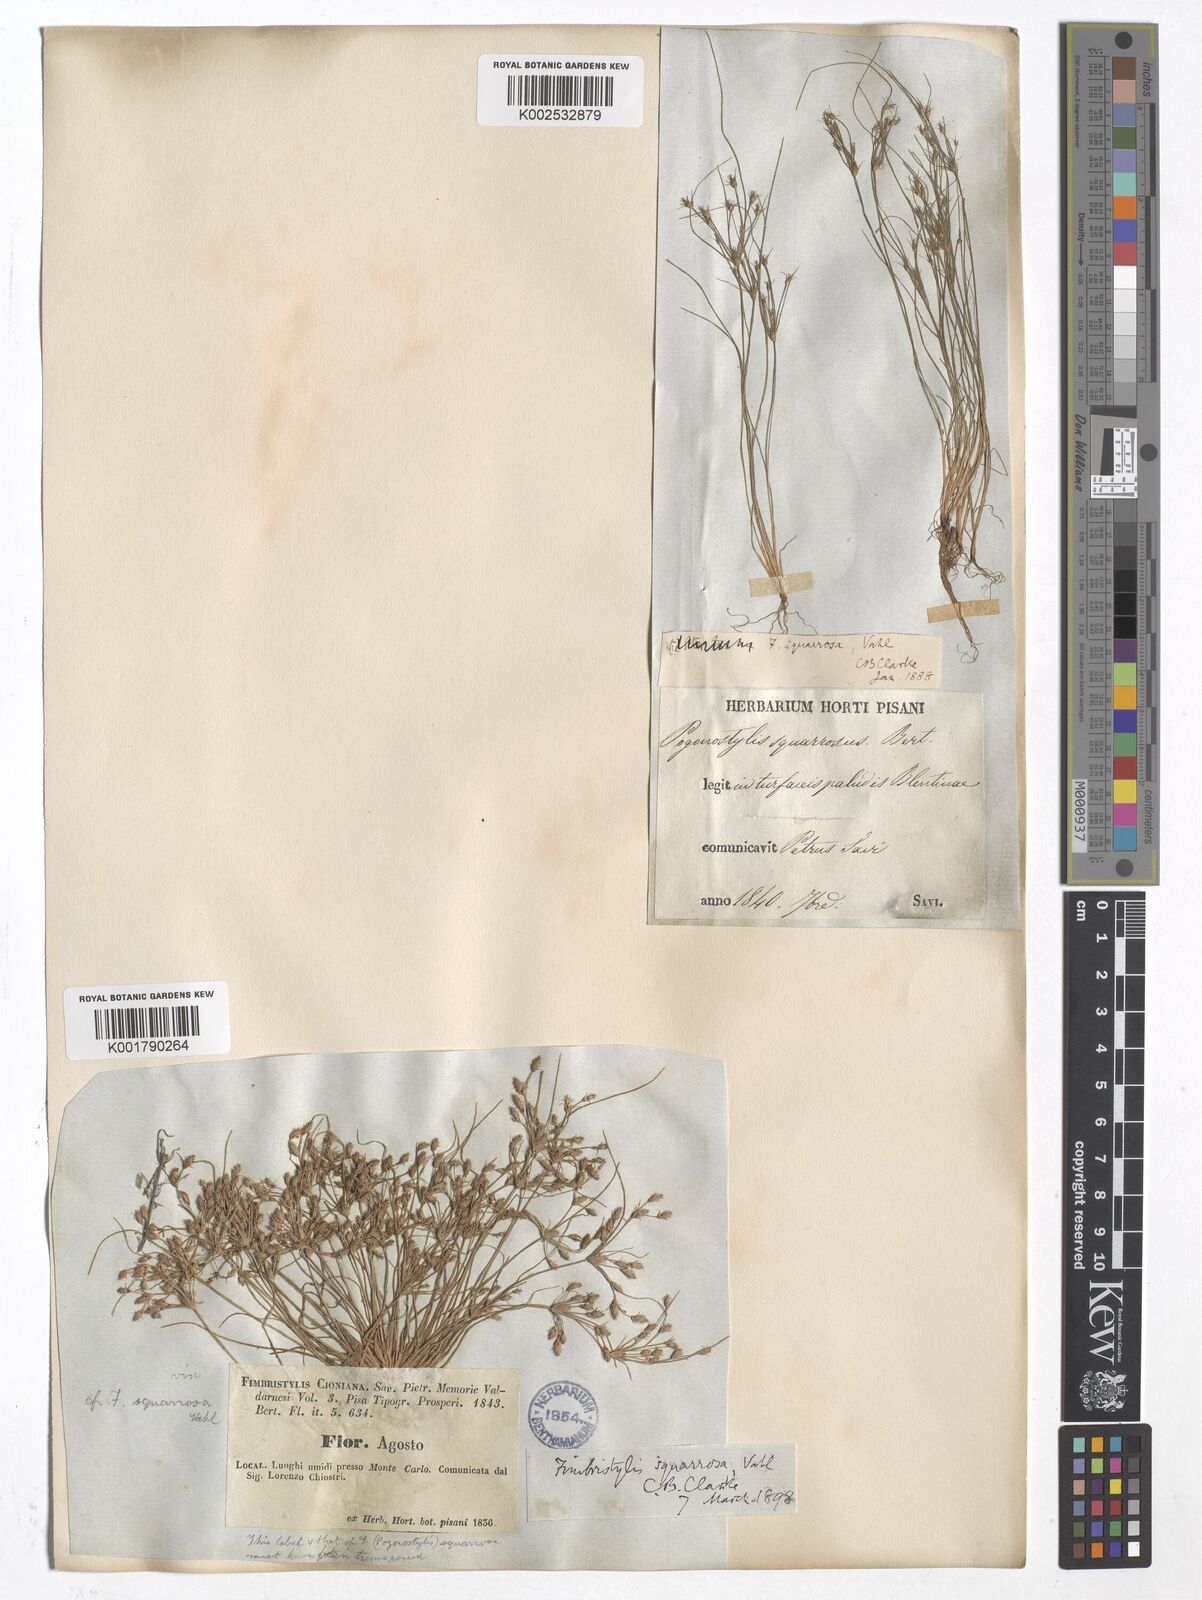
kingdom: Plantae
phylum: Tracheophyta
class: Liliopsida
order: Poales
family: Cyperaceae
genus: Fimbristylis
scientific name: Fimbristylis squarrosa
